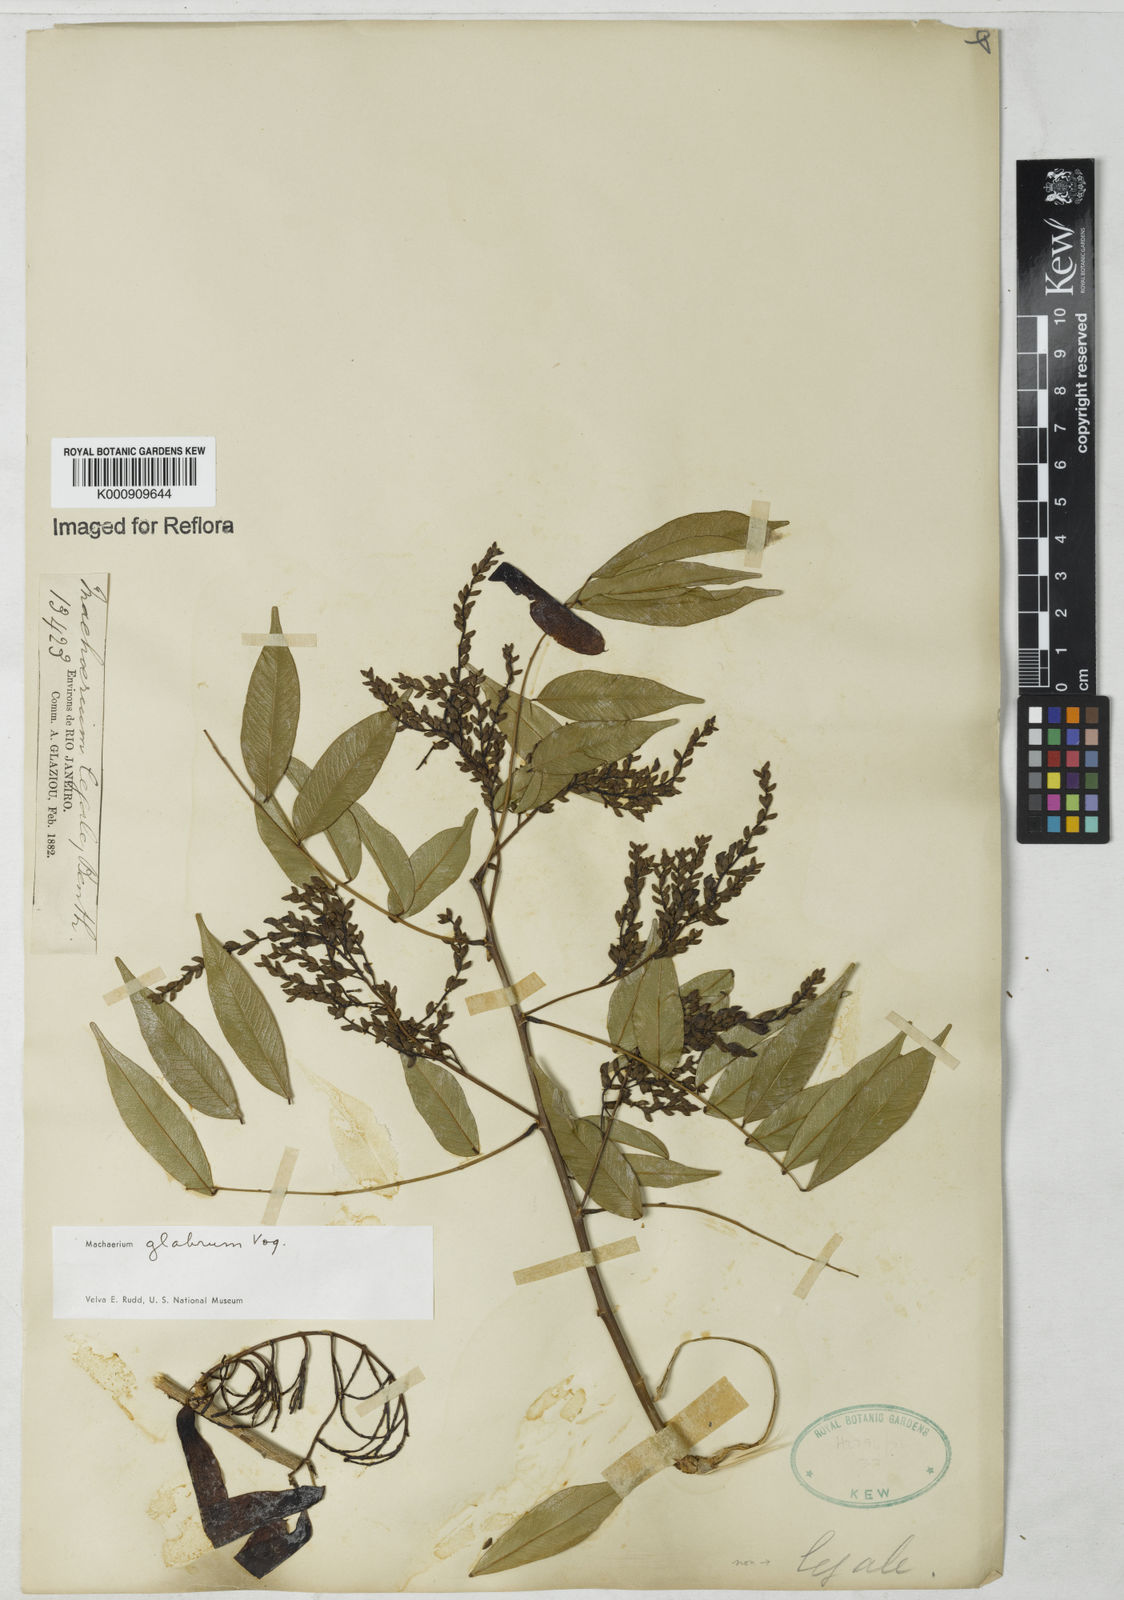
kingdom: Plantae
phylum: Tracheophyta
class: Magnoliopsida
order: Fabales
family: Fabaceae
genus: Machaerium
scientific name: Machaerium glabrum
